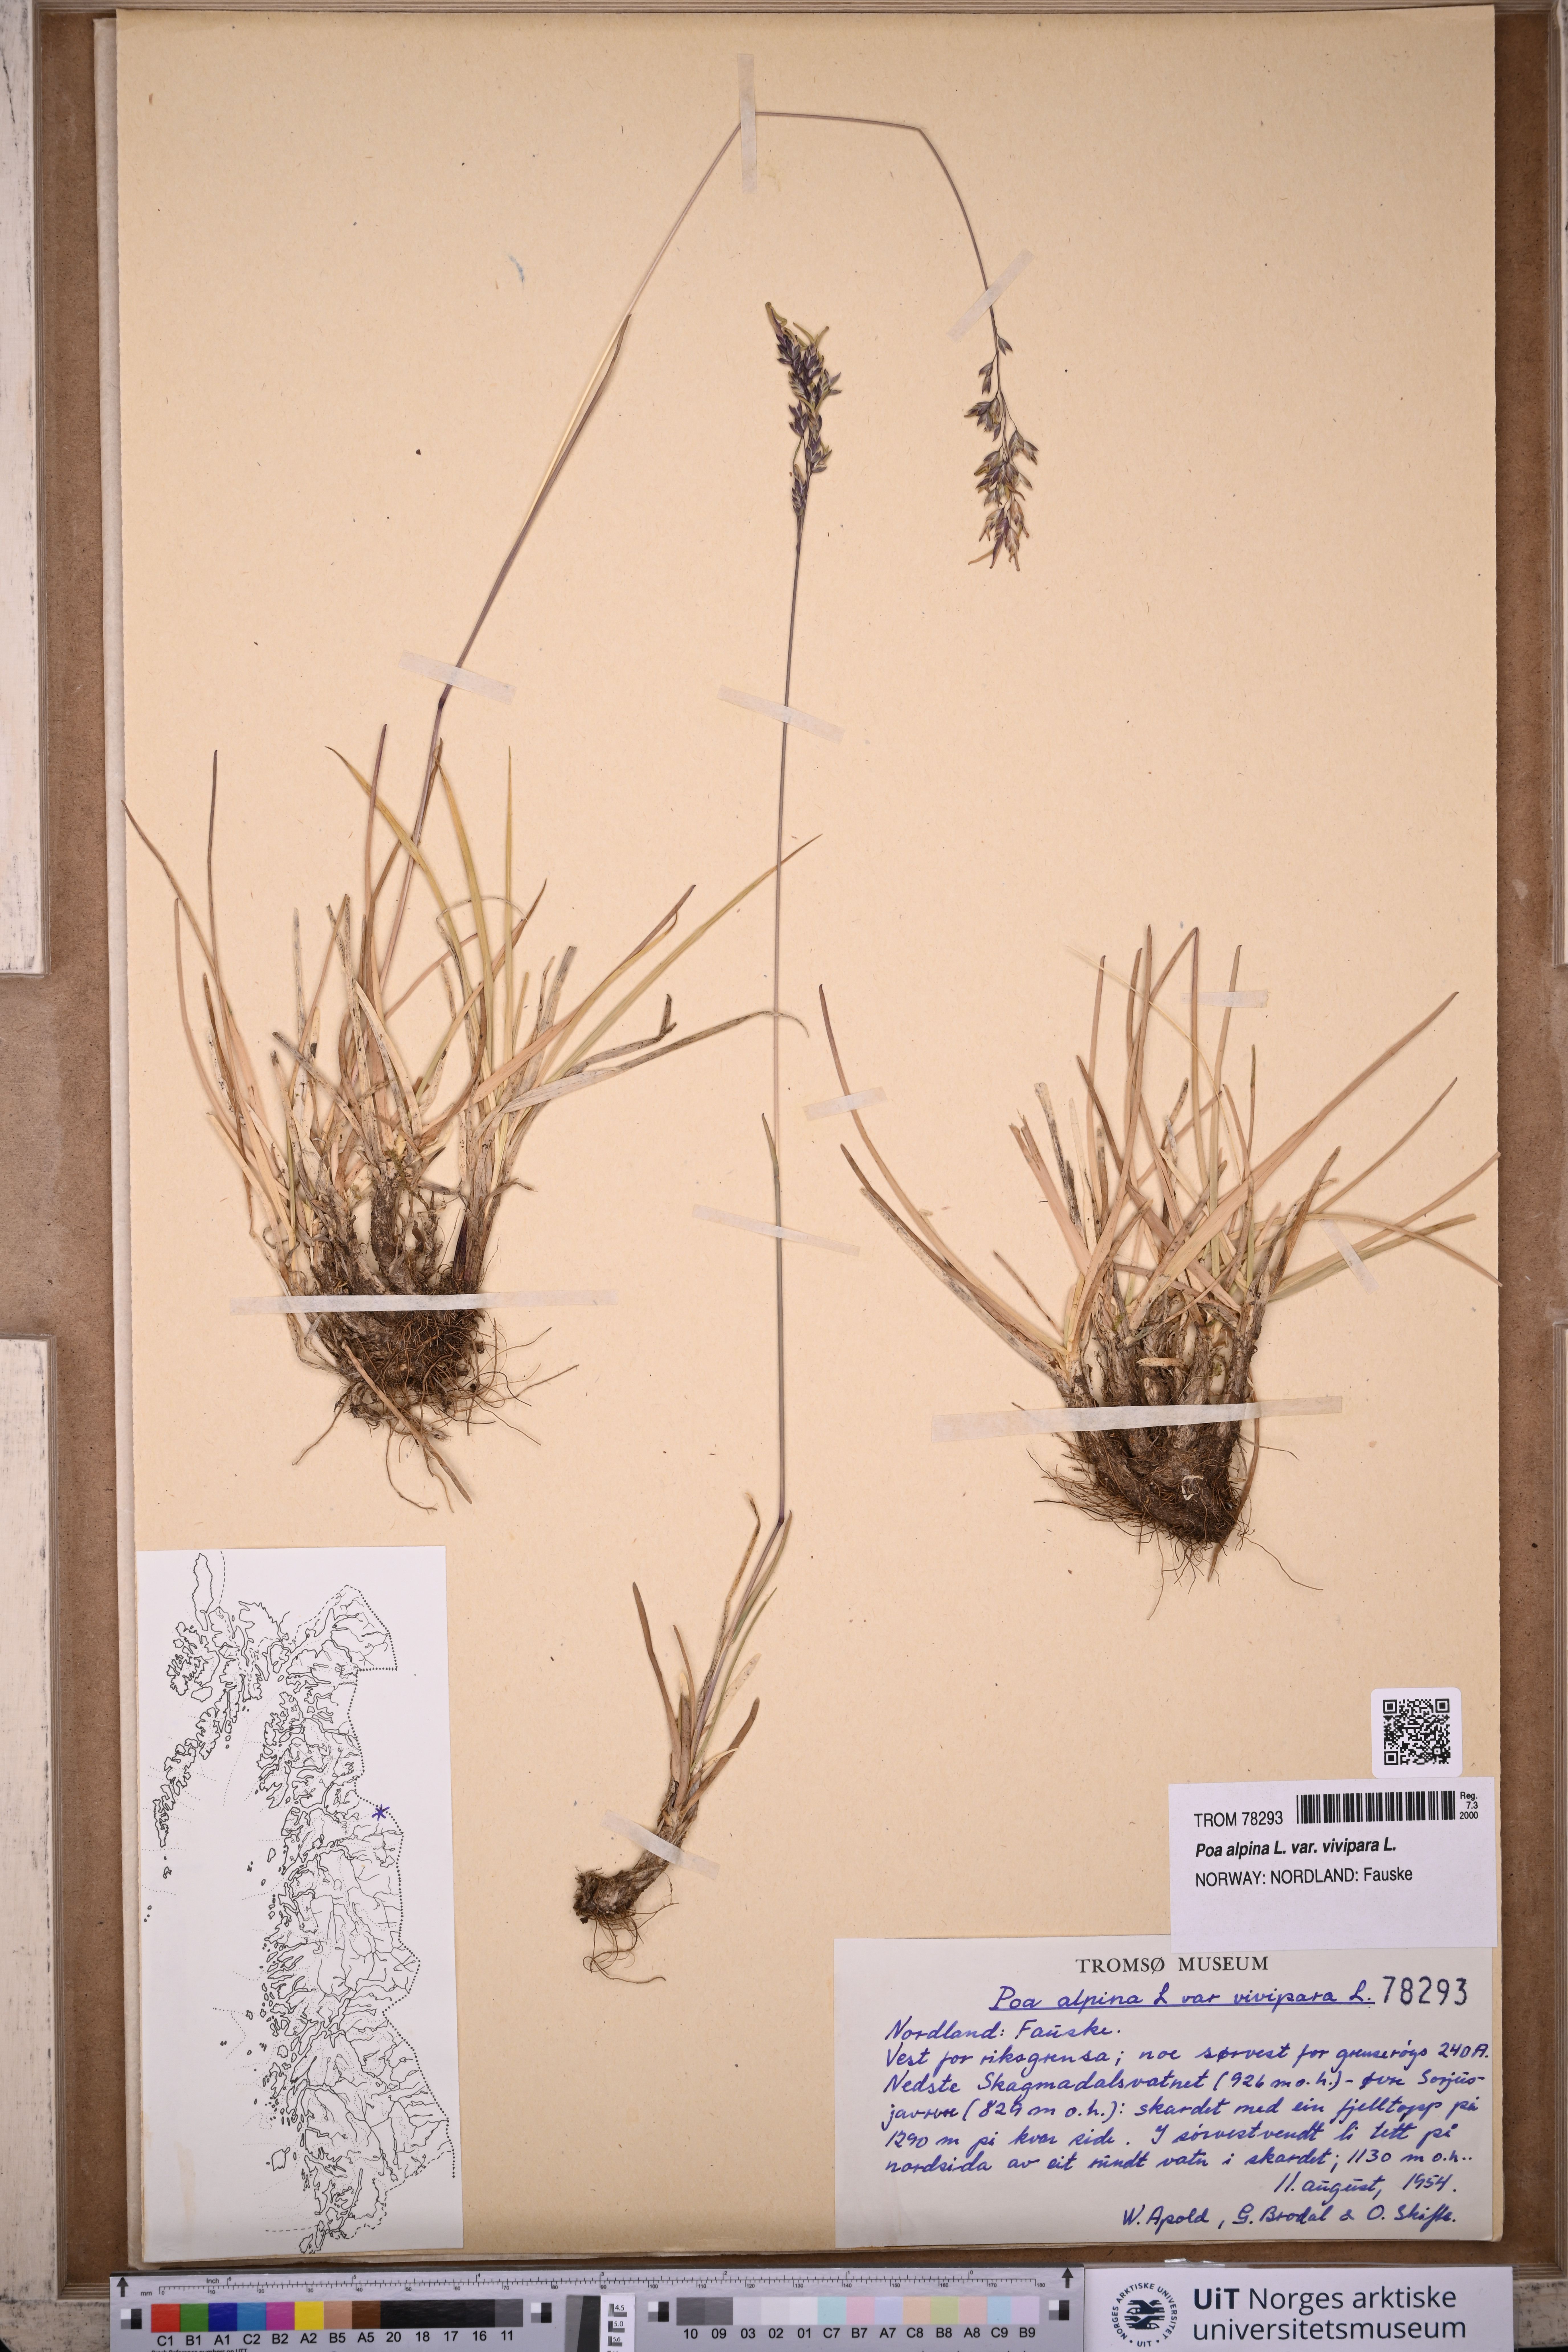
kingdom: Plantae
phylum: Tracheophyta
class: Liliopsida
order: Poales
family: Poaceae
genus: Poa
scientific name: Poa alpina
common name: Alpine bluegrass
